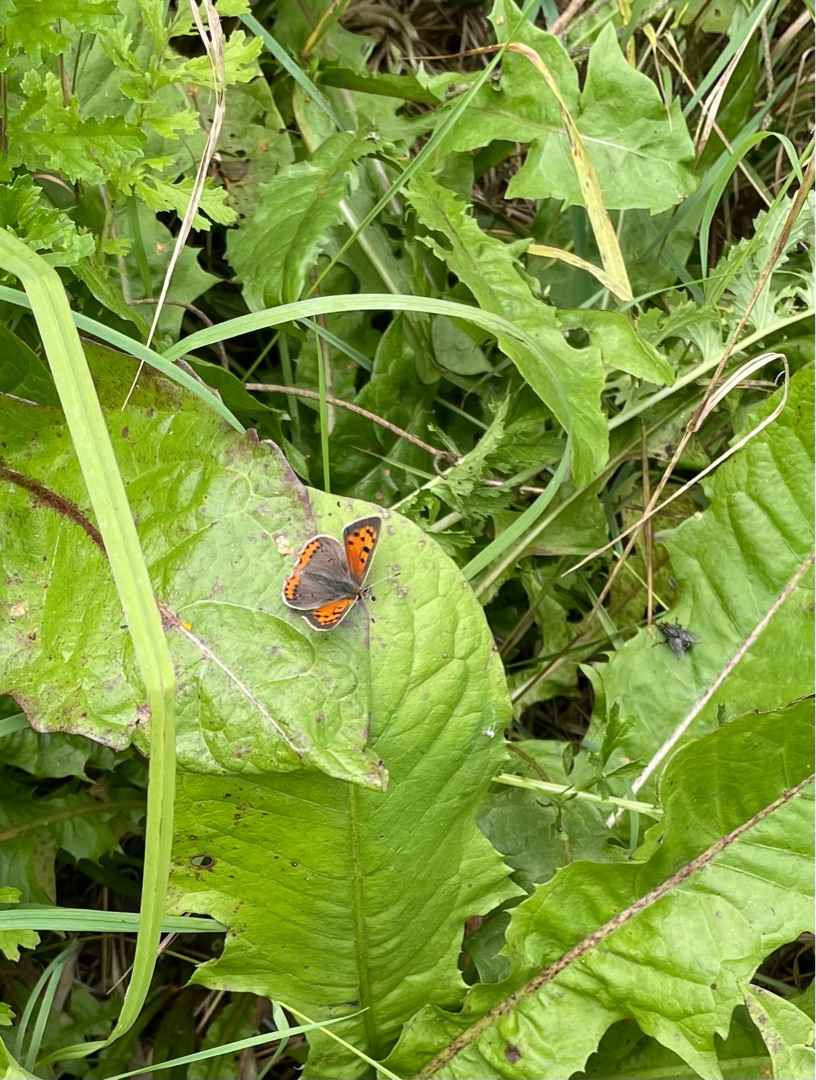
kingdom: Animalia
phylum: Arthropoda
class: Insecta
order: Lepidoptera
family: Lycaenidae
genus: Lycaena
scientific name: Lycaena phlaeas
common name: Lille ildfugl
